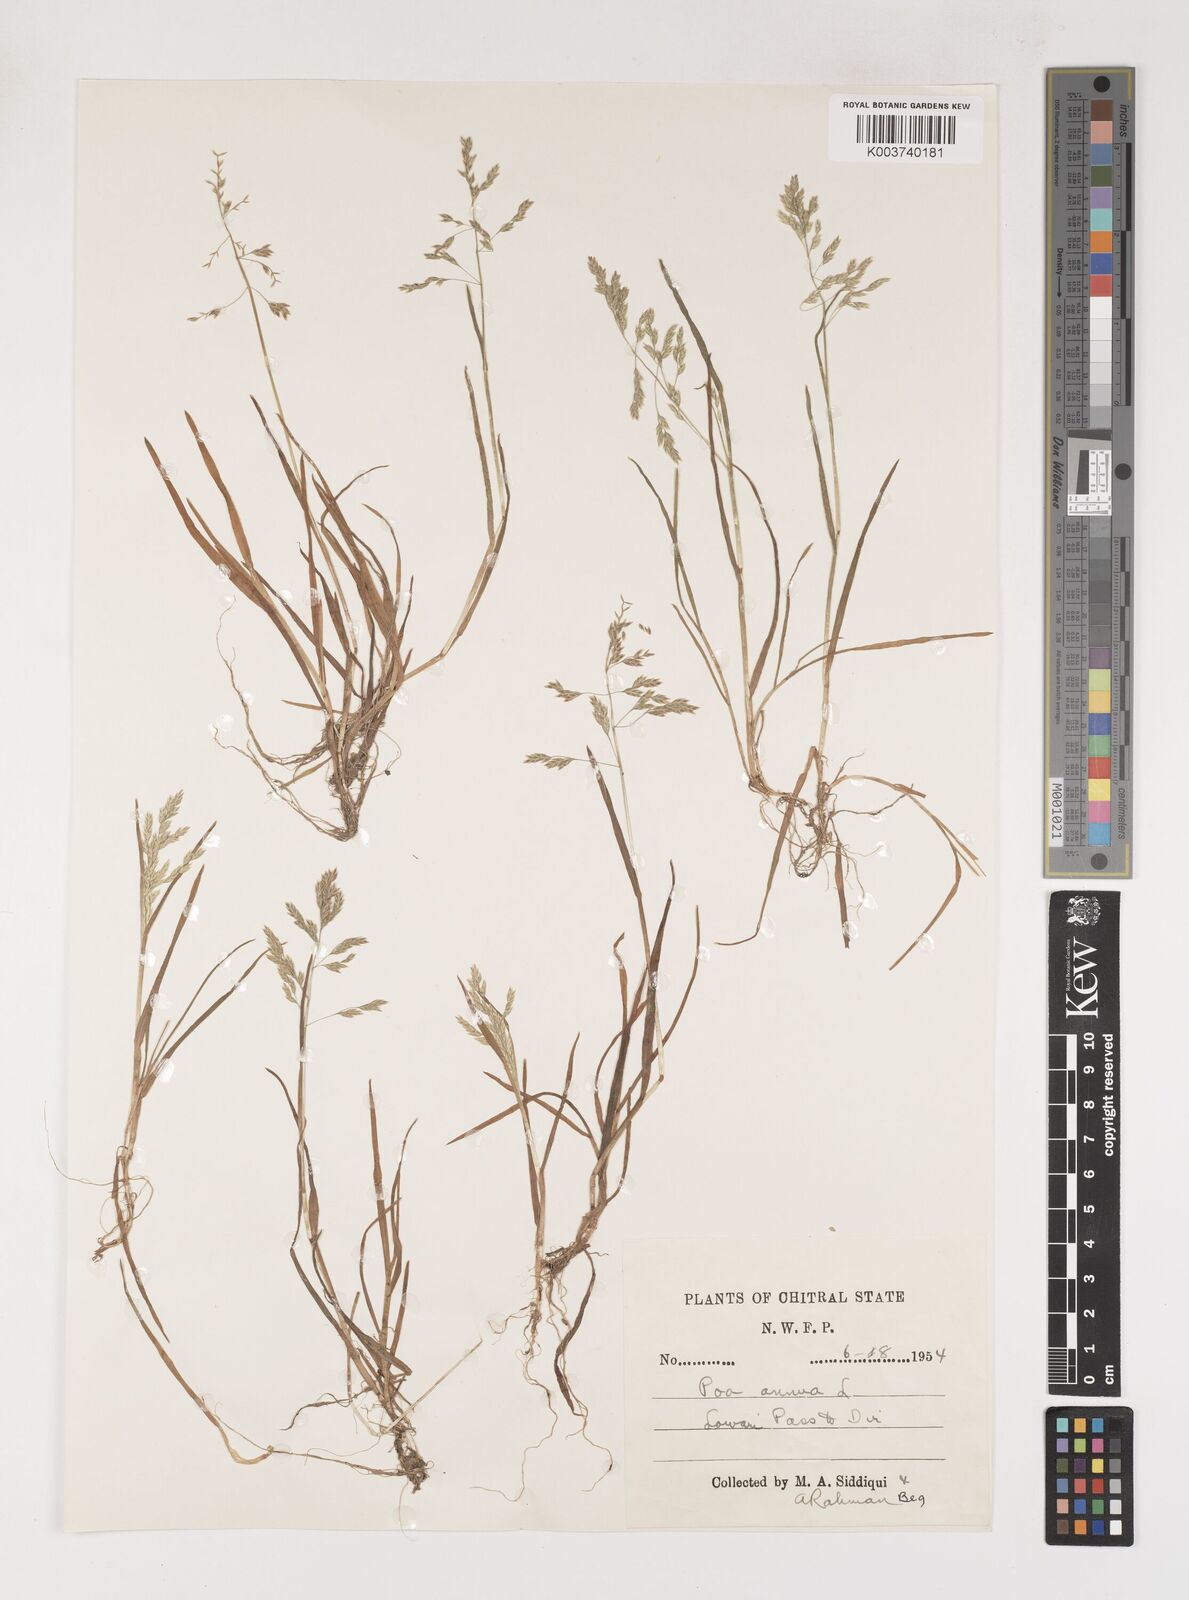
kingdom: Plantae
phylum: Tracheophyta
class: Liliopsida
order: Poales
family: Poaceae
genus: Poa
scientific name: Poa annua
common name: Annual bluegrass
